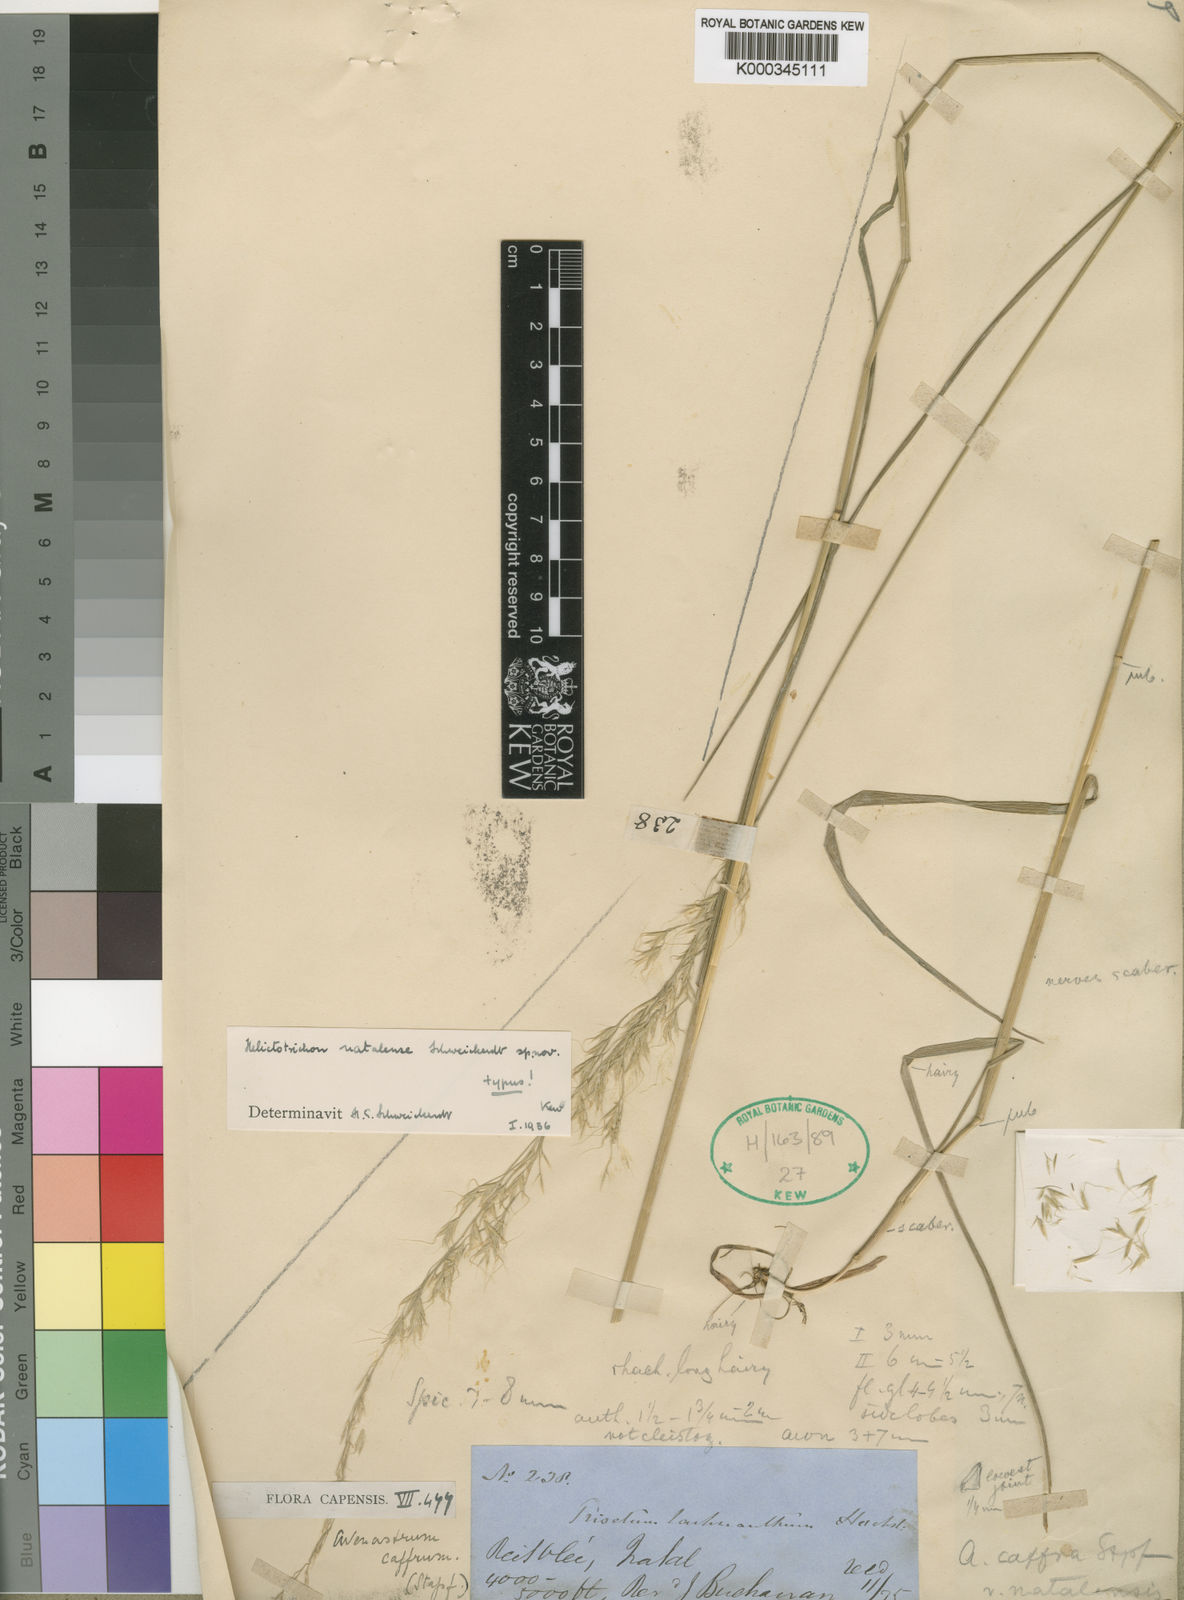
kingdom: Plantae
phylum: Tracheophyta
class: Liliopsida
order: Poales
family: Poaceae
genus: Trisetopsis
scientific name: Trisetopsis natalensis
